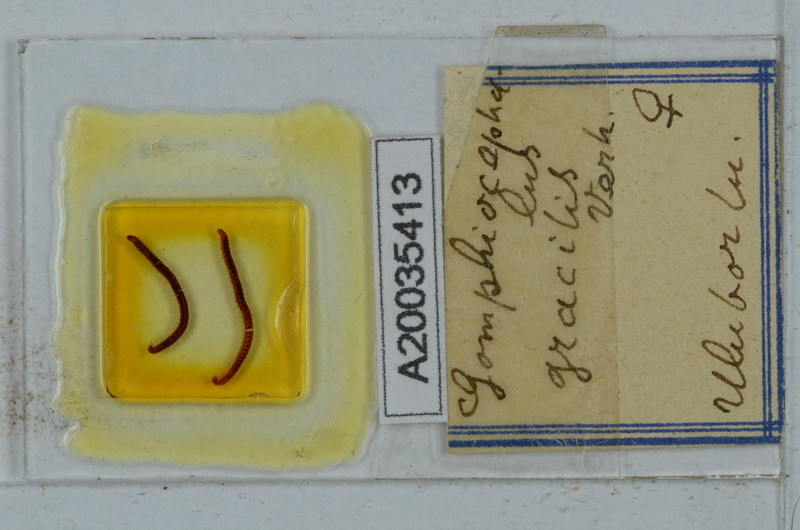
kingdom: Animalia
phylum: Arthropoda
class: Diplopoda
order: Julida
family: Blaniulidae
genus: Nopoiulus
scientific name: Nopoiulus kochii
